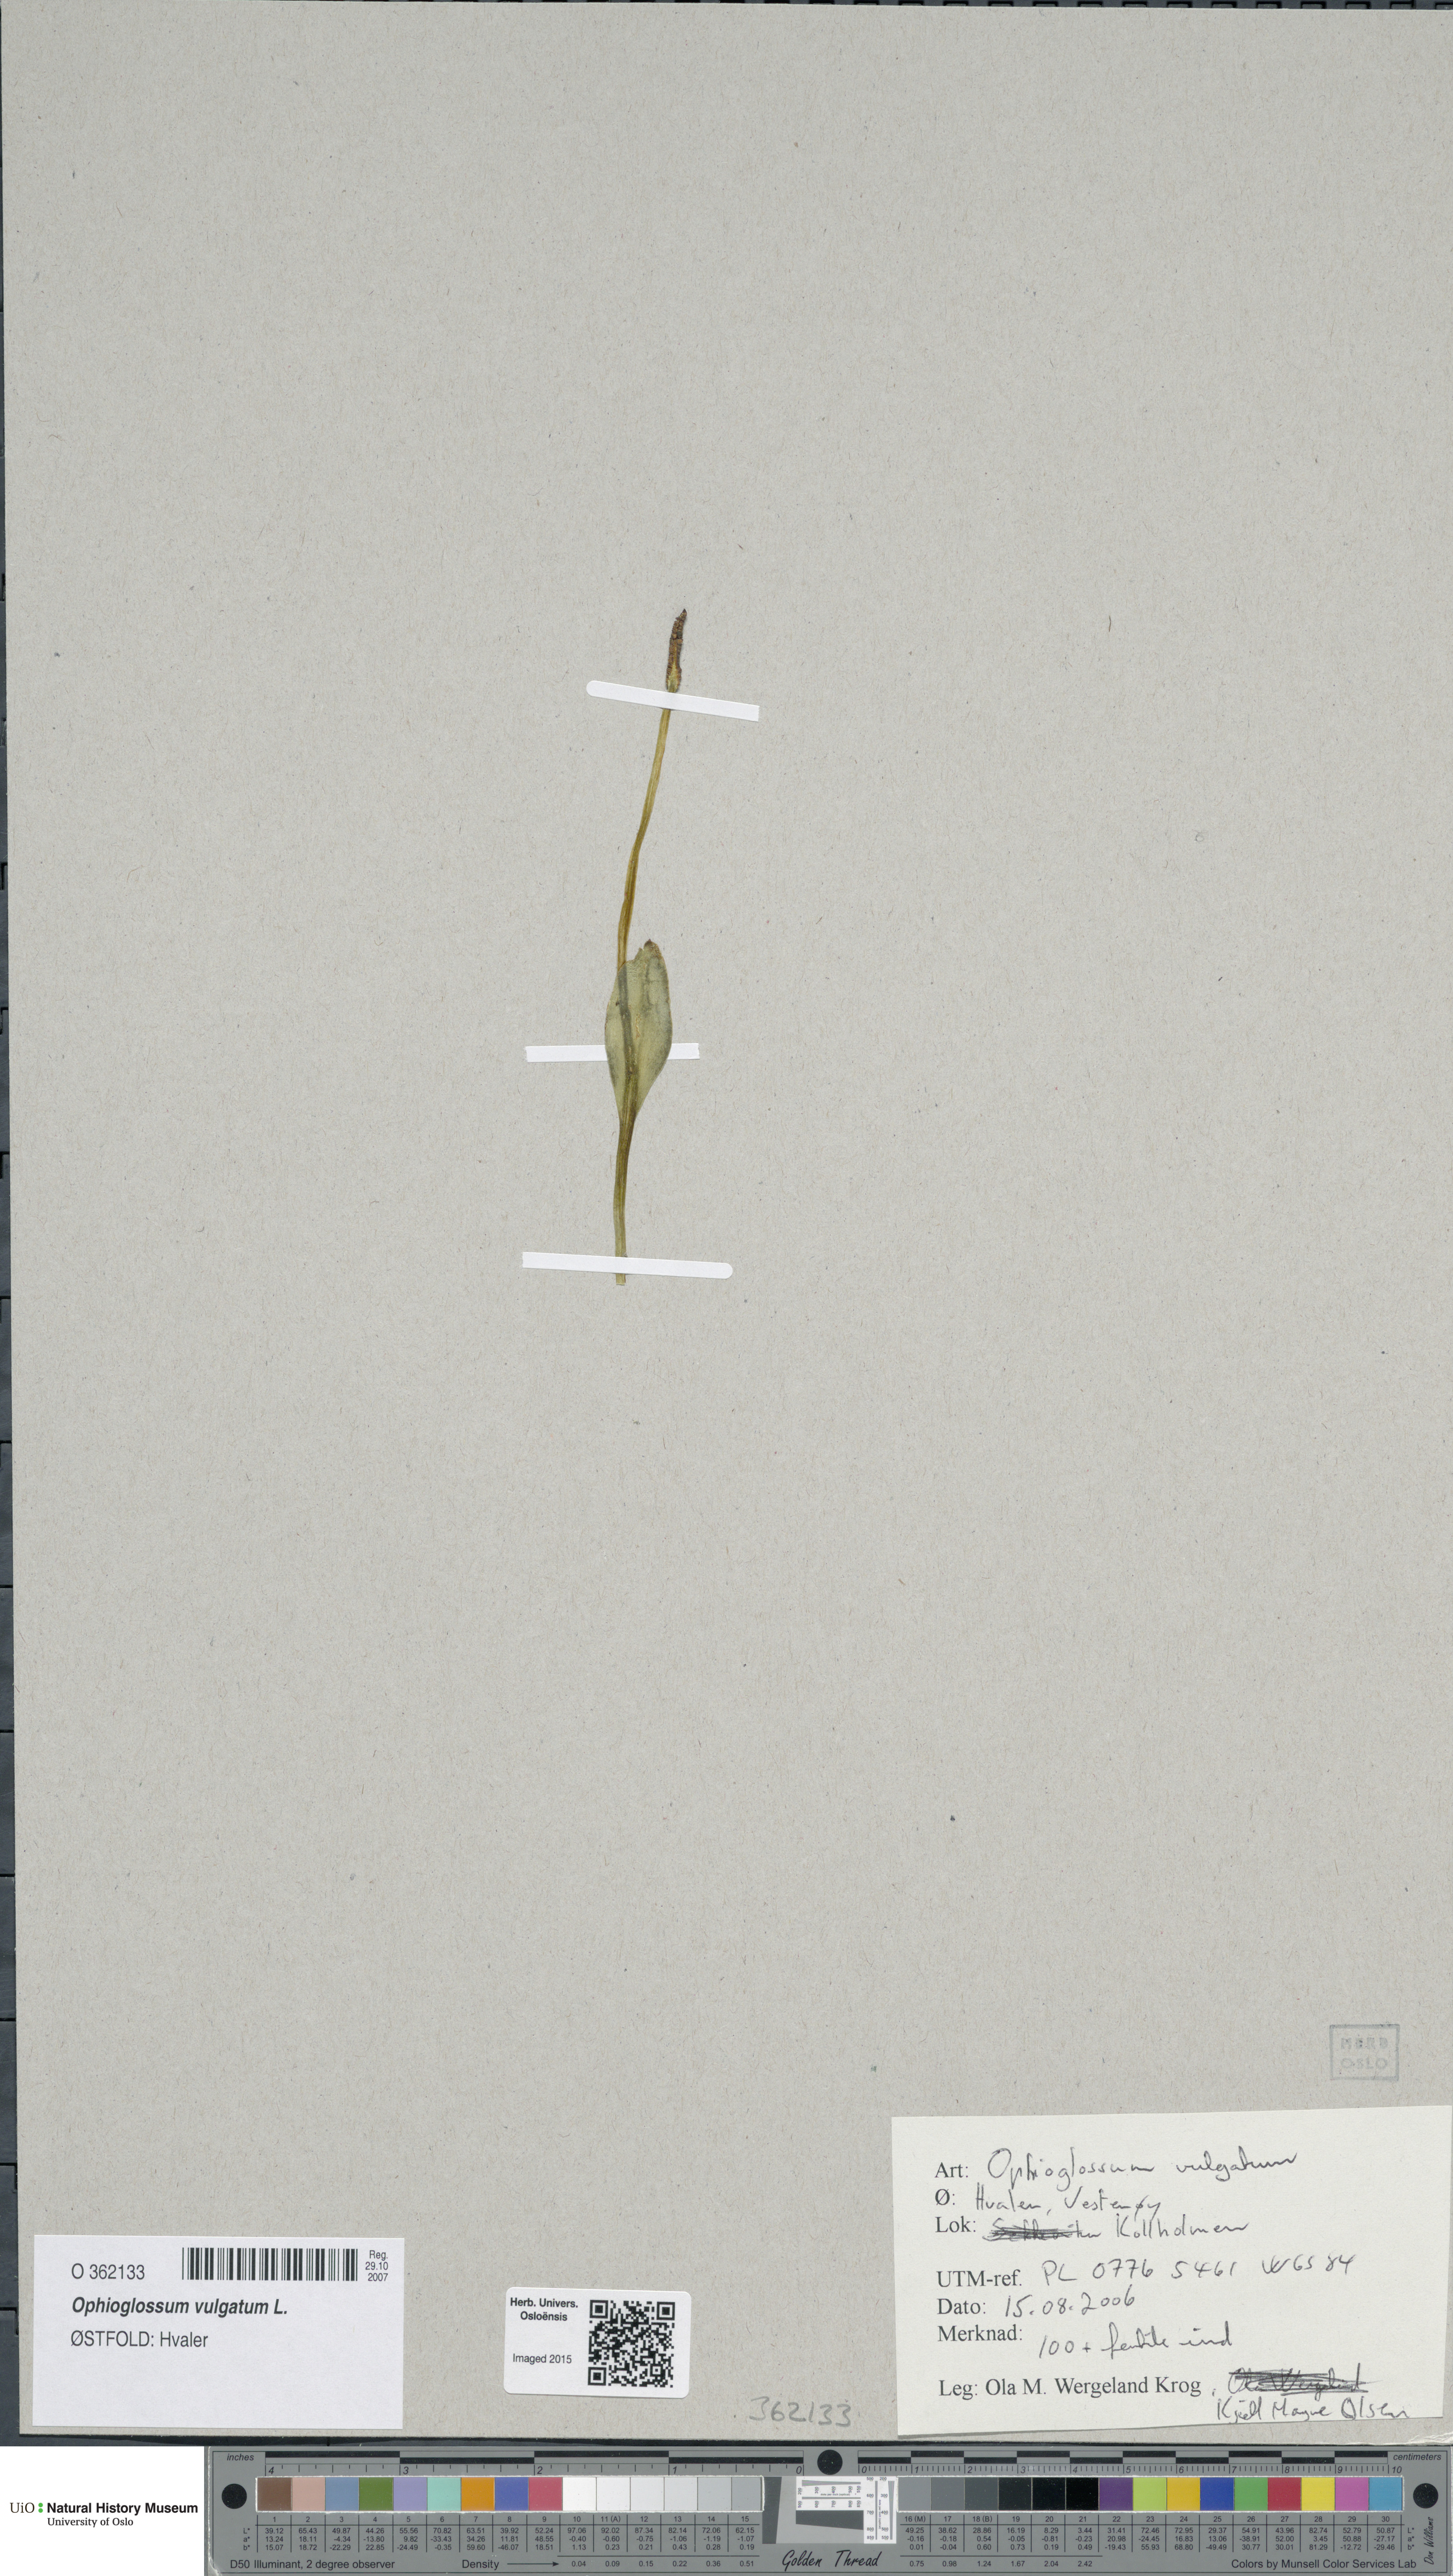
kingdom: Plantae
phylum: Tracheophyta
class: Polypodiopsida
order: Ophioglossales
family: Ophioglossaceae
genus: Ophioglossum
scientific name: Ophioglossum vulgatum
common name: Adder's-tongue
